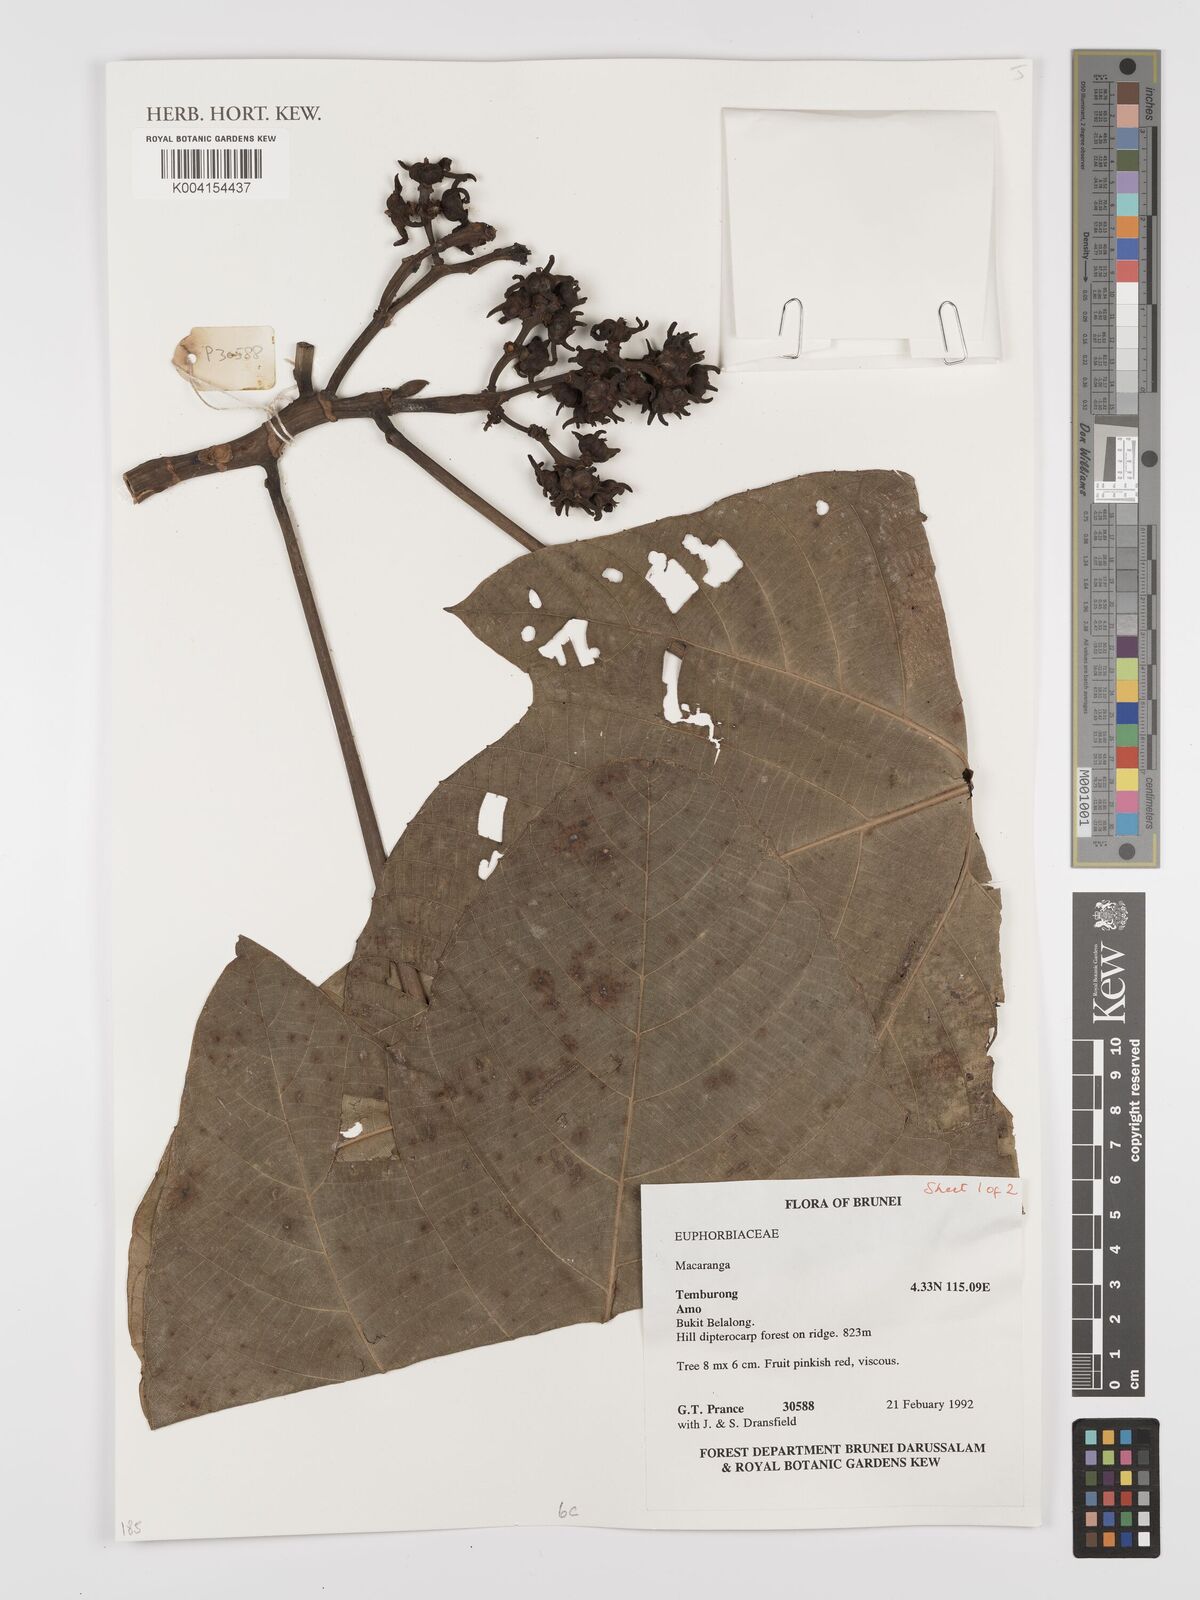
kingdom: Plantae
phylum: Tracheophyta
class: Magnoliopsida
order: Malpighiales
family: Euphorbiaceae
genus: Macaranga
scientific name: Macaranga
